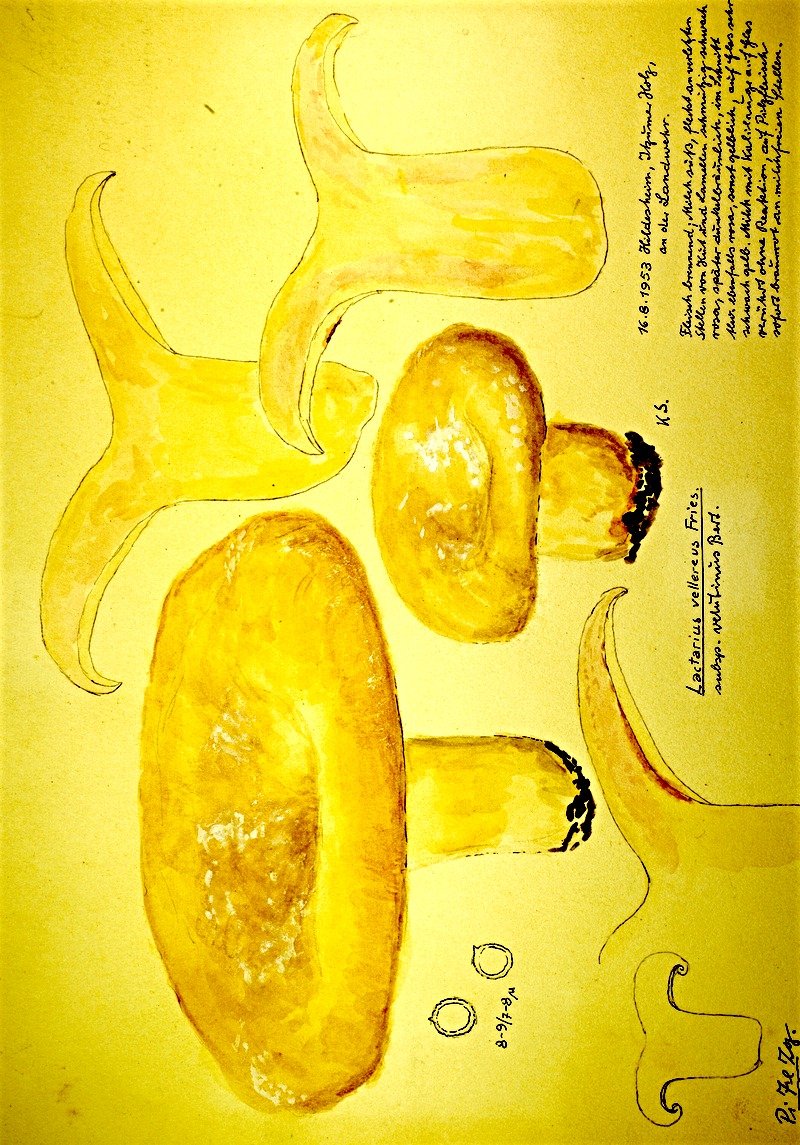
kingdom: Fungi
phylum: Basidiomycota
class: Agaricomycetes
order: Russulales
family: Russulaceae
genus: Lactifluus
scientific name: Lactifluus vellereus
